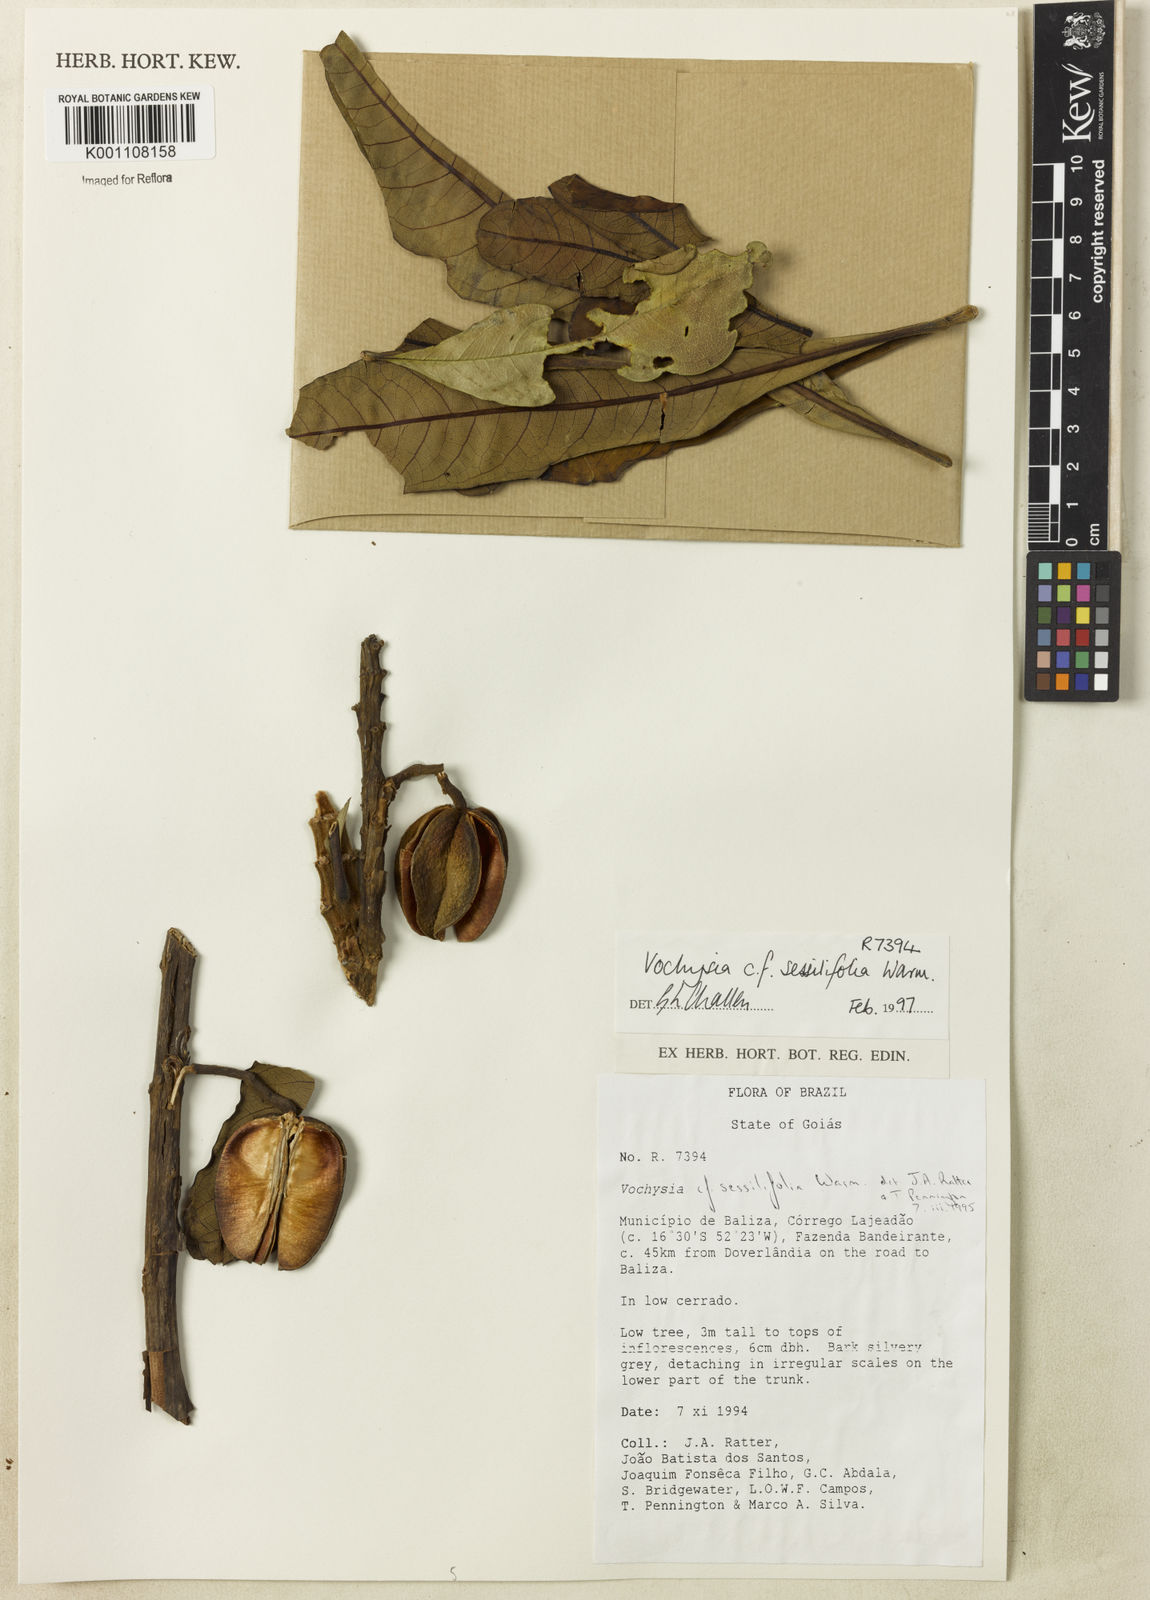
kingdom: Plantae
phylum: Tracheophyta
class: Magnoliopsida
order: Myrtales
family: Vochysiaceae
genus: Vochysia
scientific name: Vochysia sessilifolia
